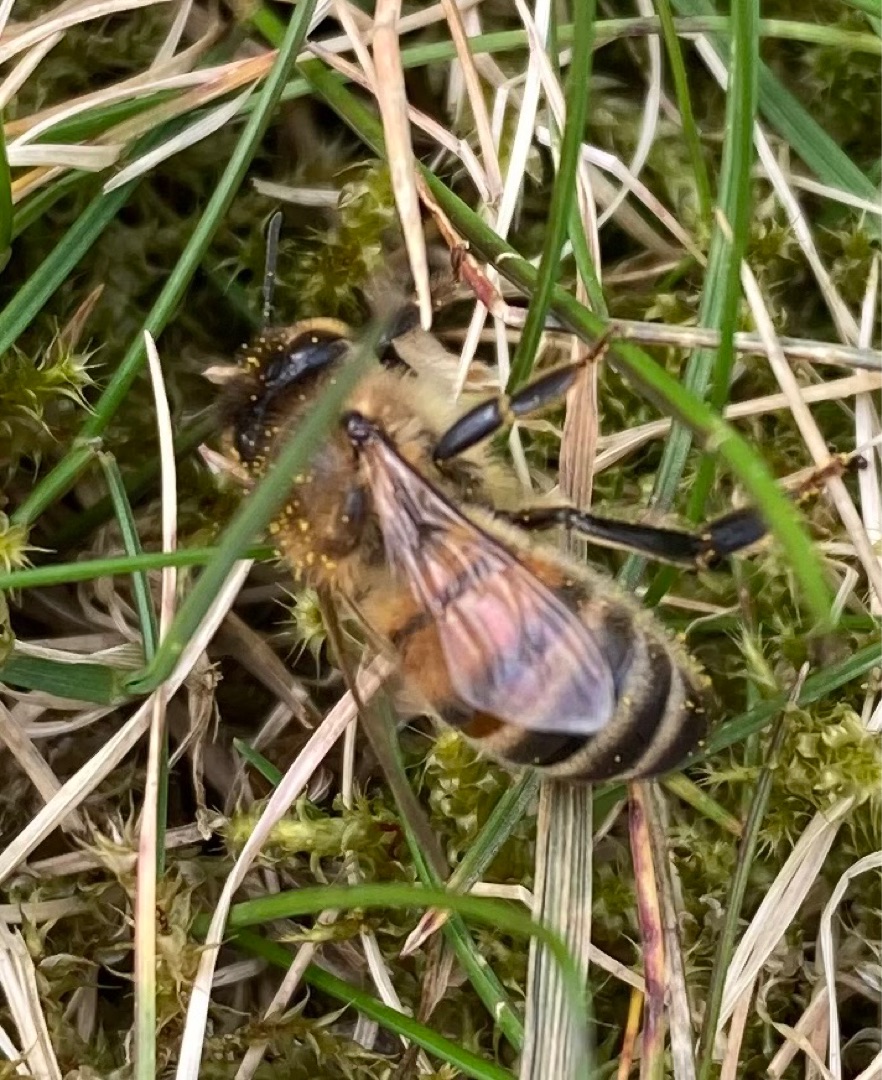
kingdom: Animalia
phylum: Arthropoda
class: Insecta
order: Hymenoptera
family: Apidae
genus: Apis
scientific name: Apis mellifera
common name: Honningbi
